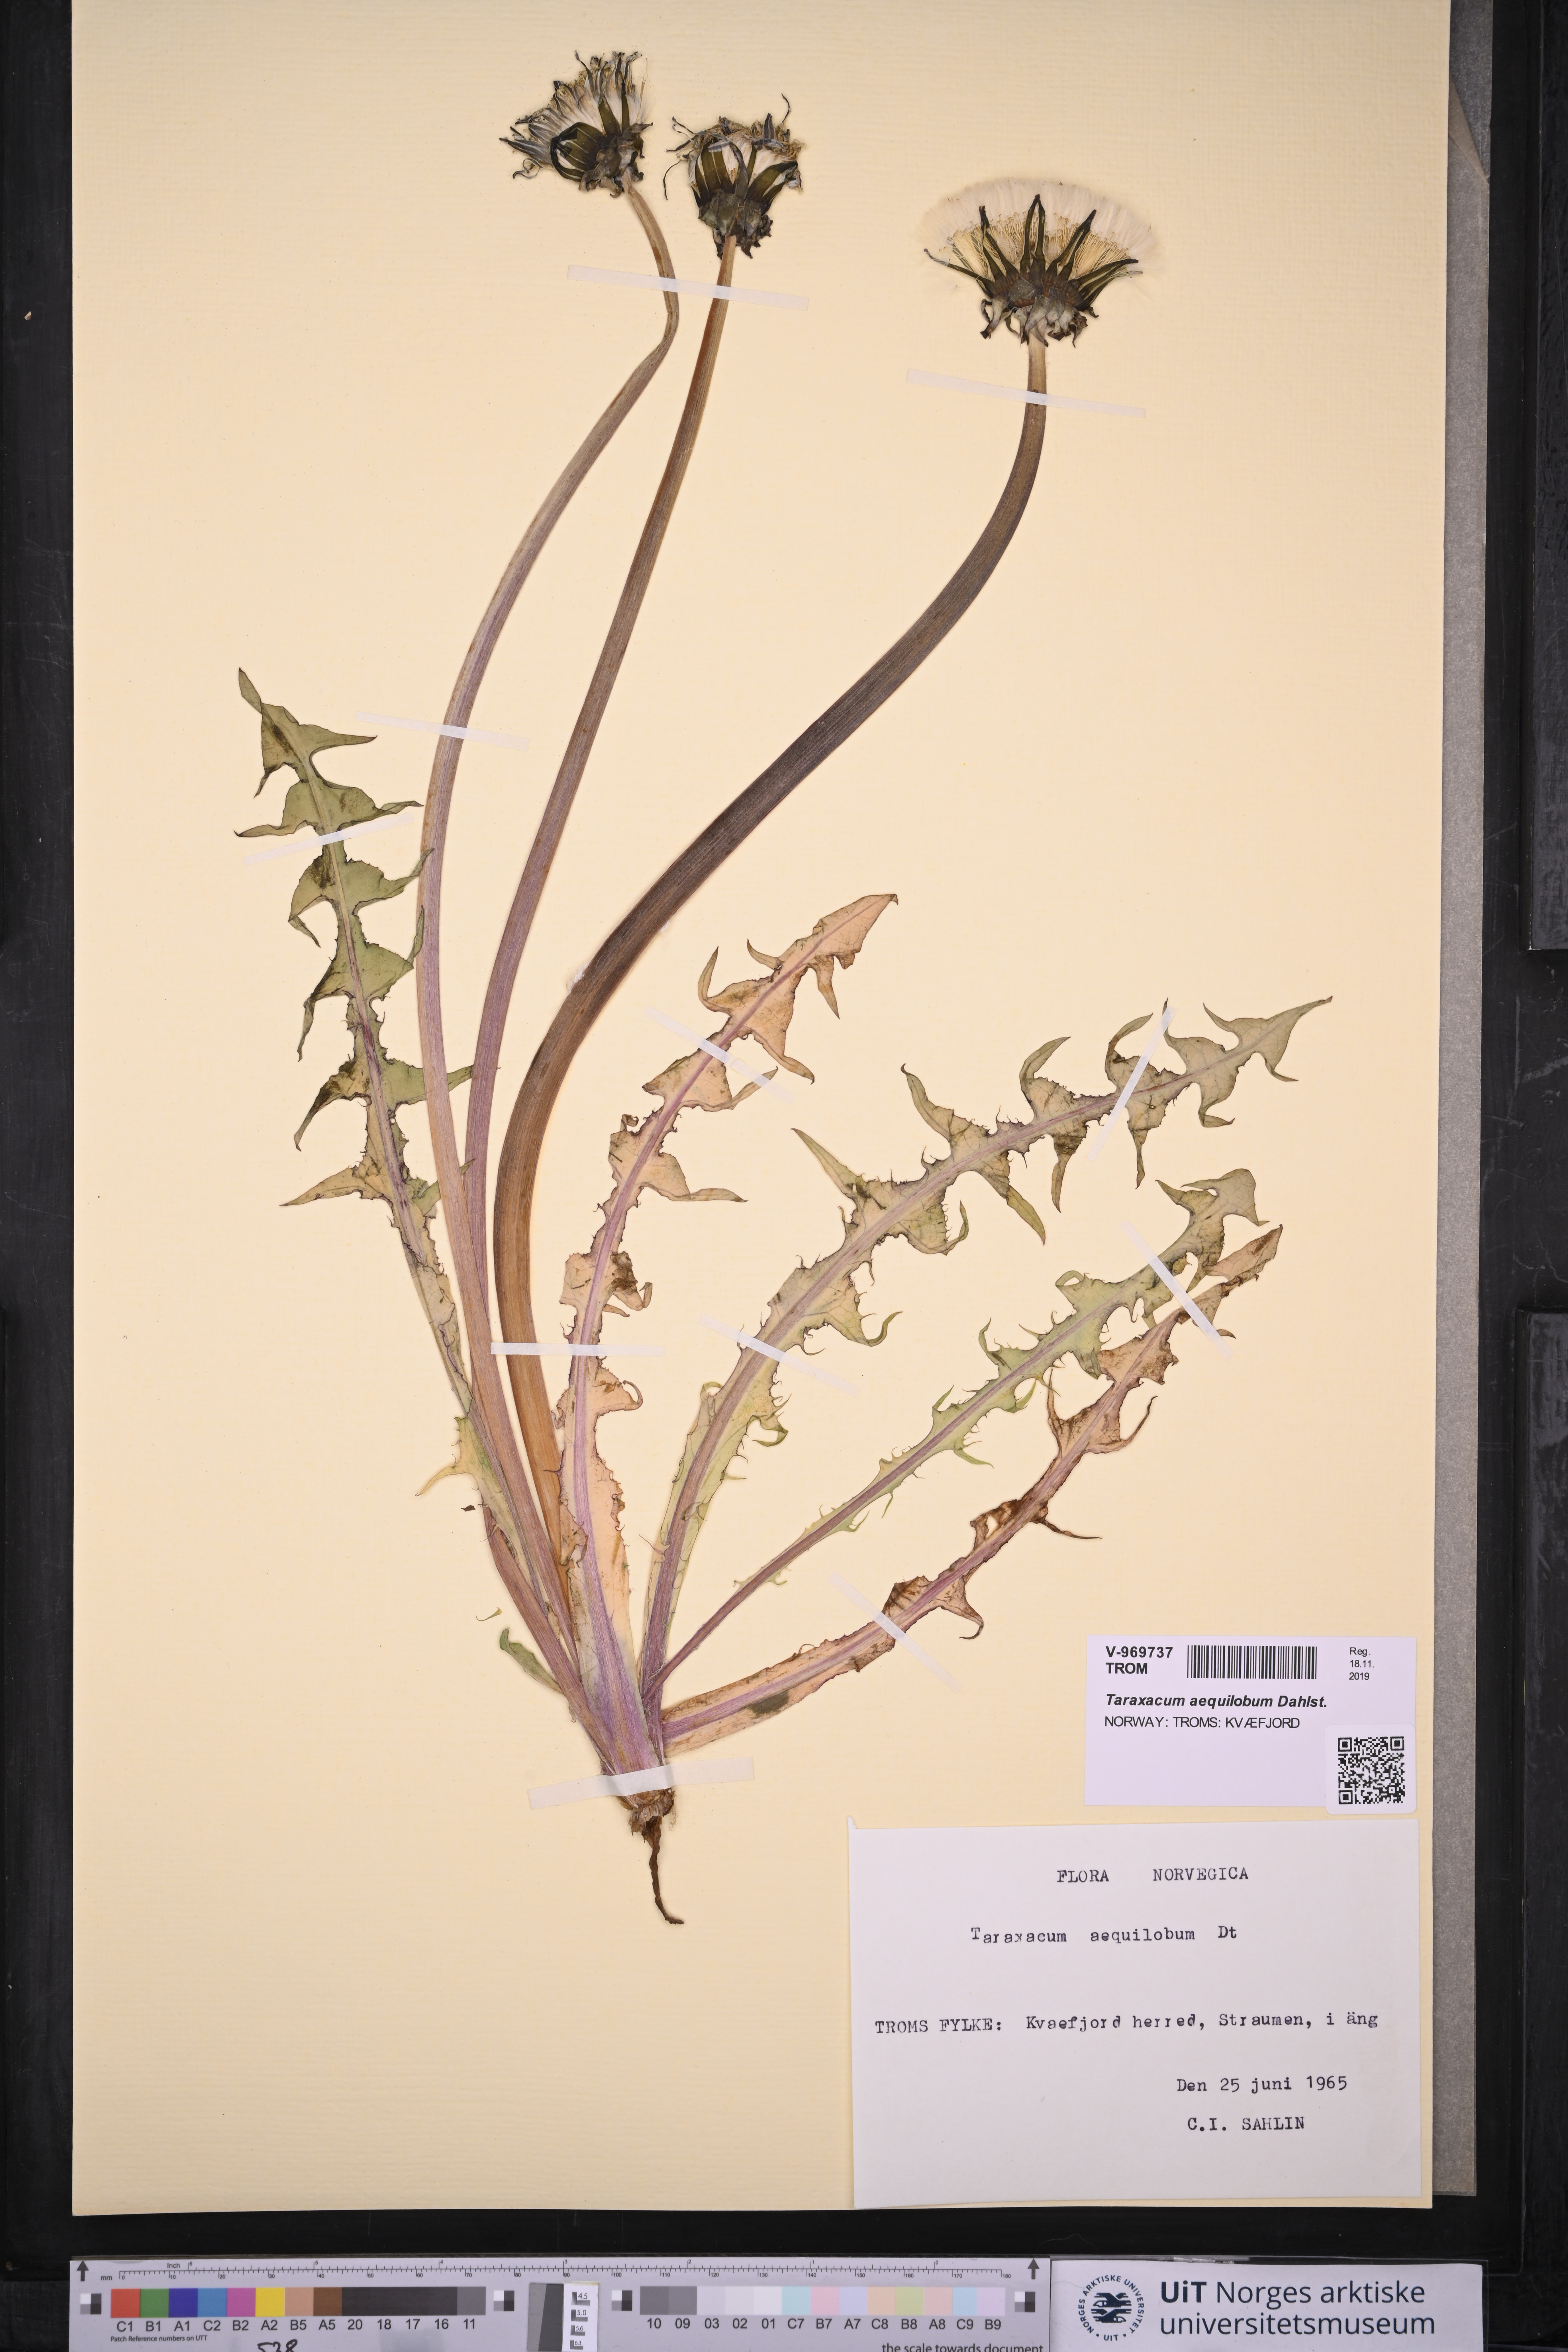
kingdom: Plantae
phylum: Tracheophyta
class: Magnoliopsida
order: Asterales
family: Asteraceae
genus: Taraxacum
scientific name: Taraxacum aequilobum
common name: Twisted-bracted dandelion
